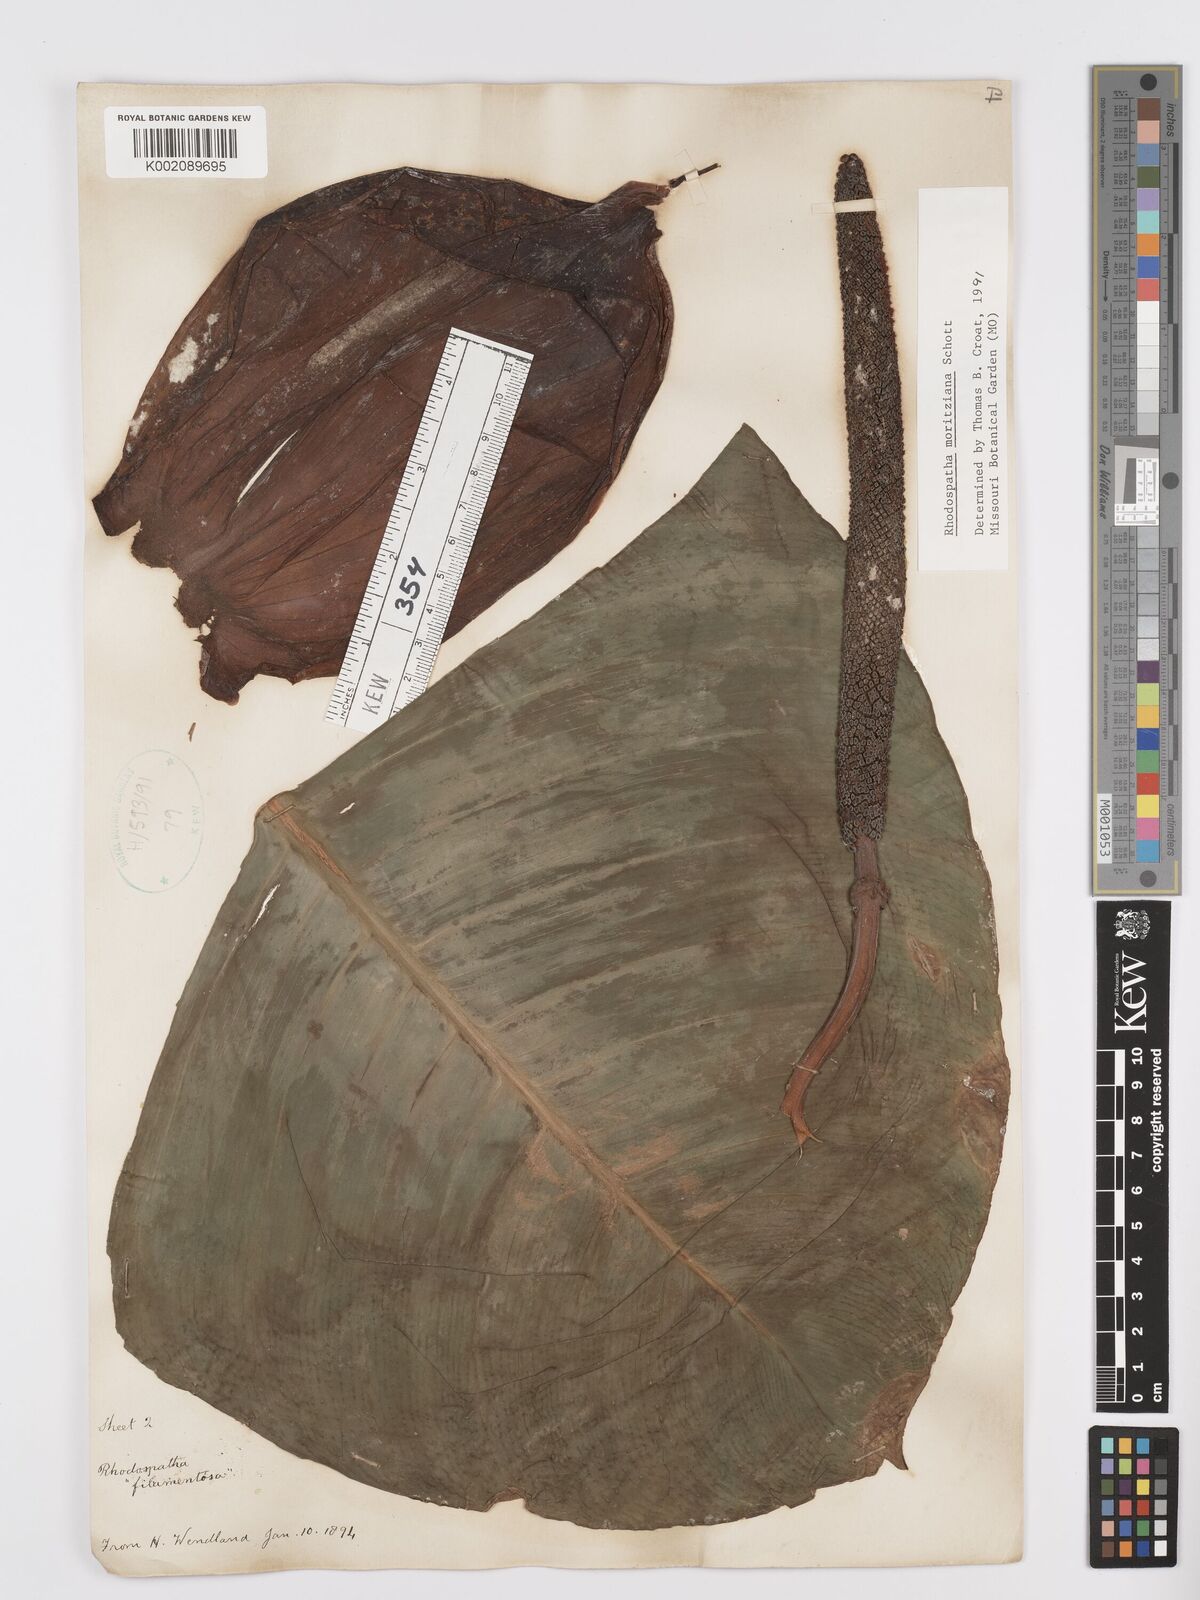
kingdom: Plantae
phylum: Tracheophyta
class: Liliopsida
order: Alismatales
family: Araceae
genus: Rhodospatha
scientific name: Rhodospatha moritziana
